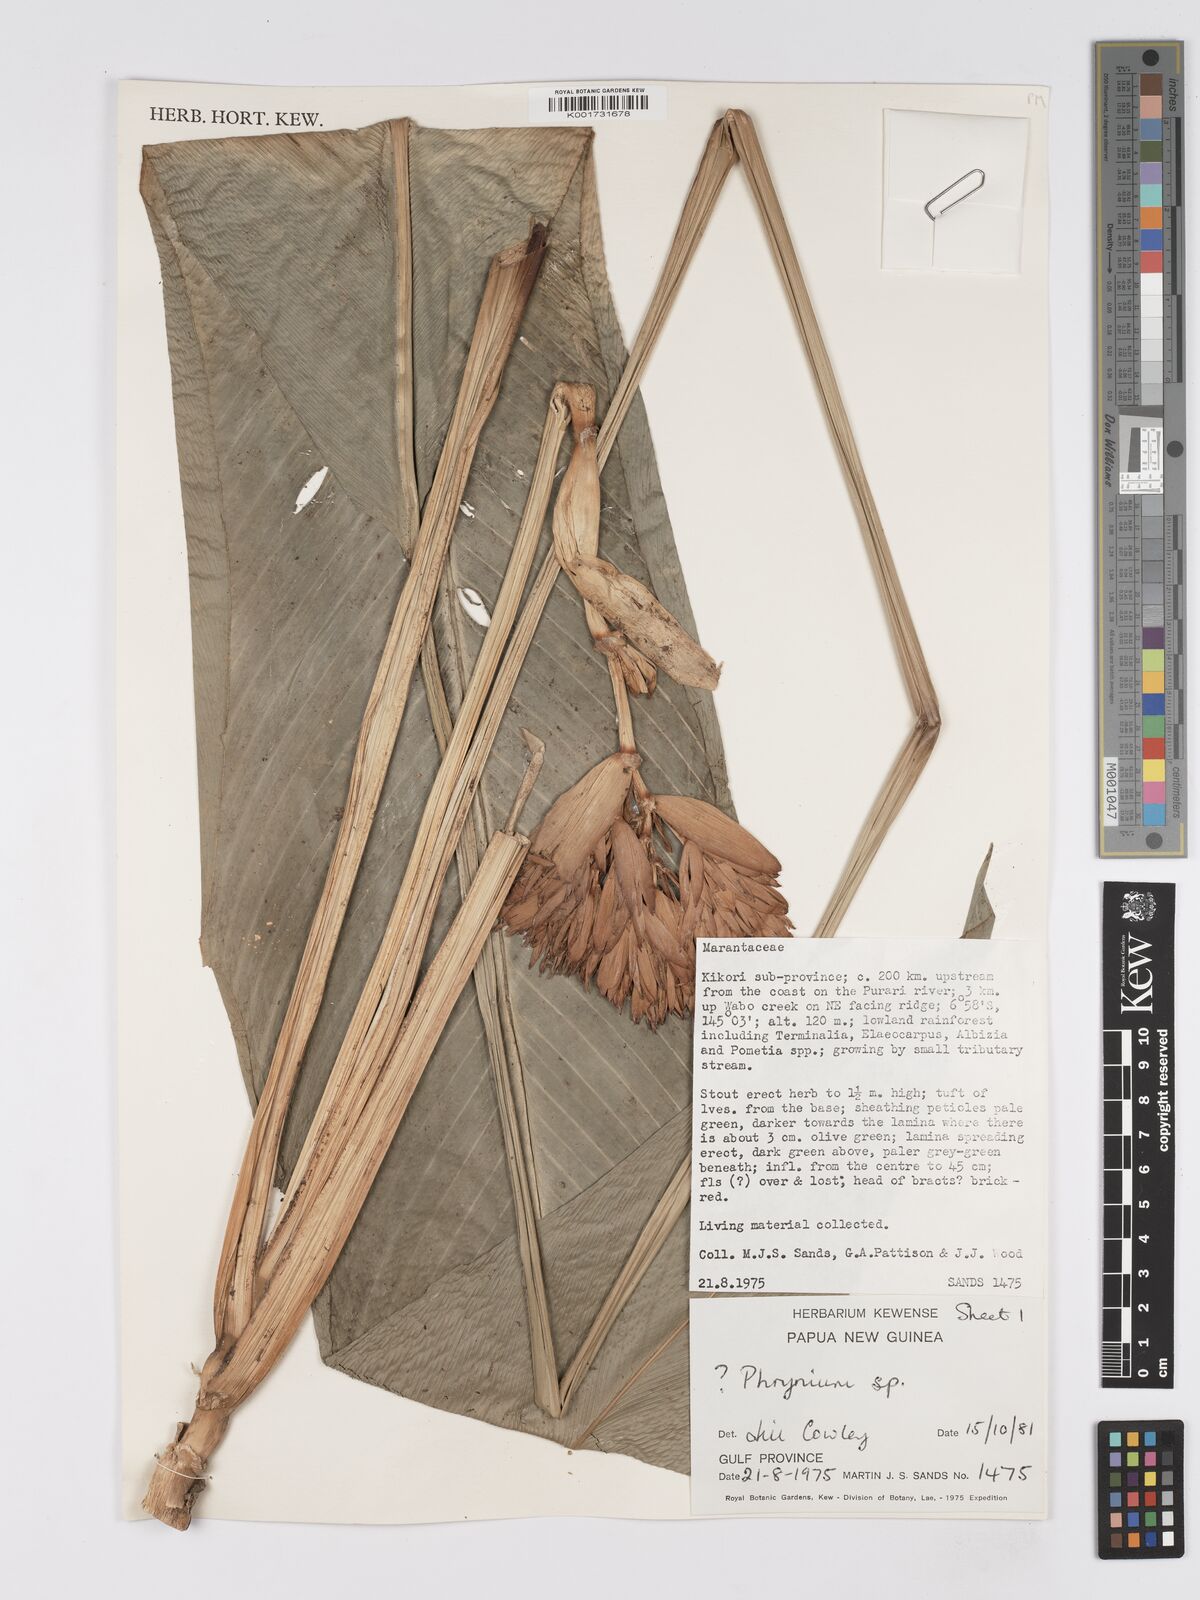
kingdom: Plantae
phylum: Tracheophyta
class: Liliopsida
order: Zingiberales
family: Marantaceae
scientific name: Marantaceae
